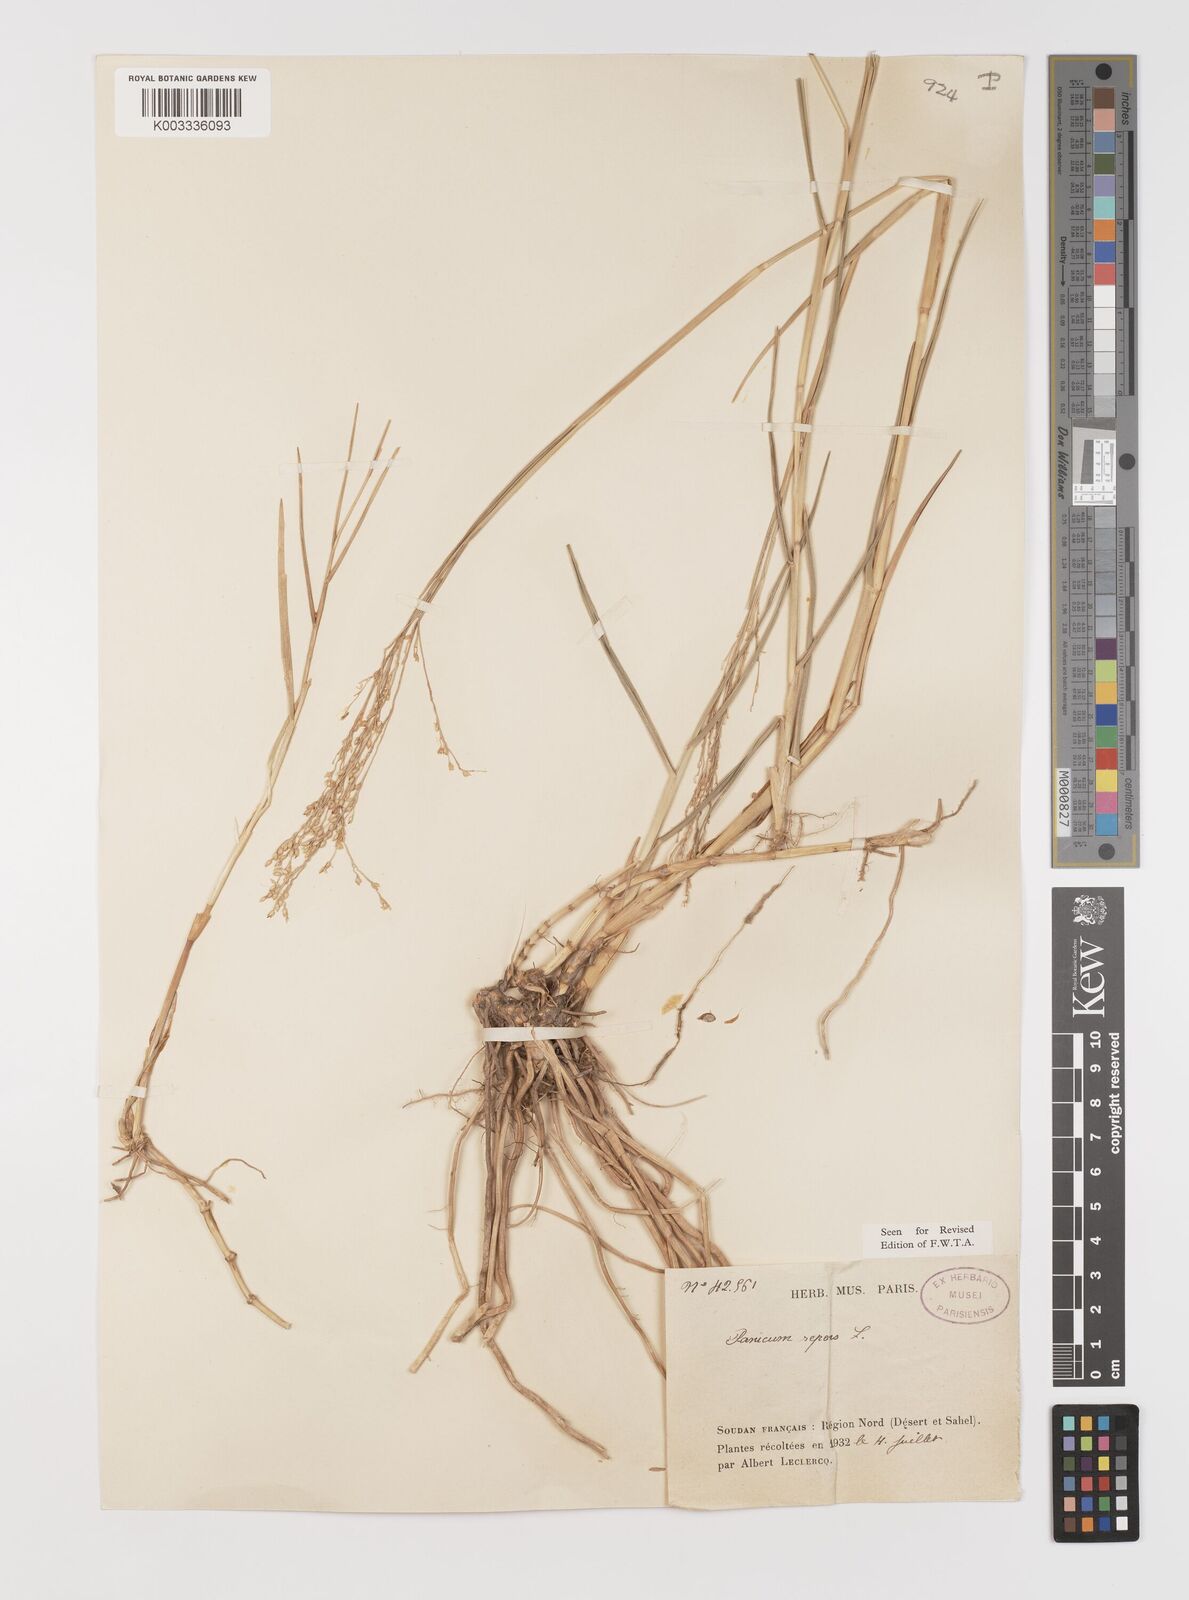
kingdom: Plantae
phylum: Tracheophyta
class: Liliopsida
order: Poales
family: Poaceae
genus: Panicum
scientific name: Panicum repens
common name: Torpedo grass
